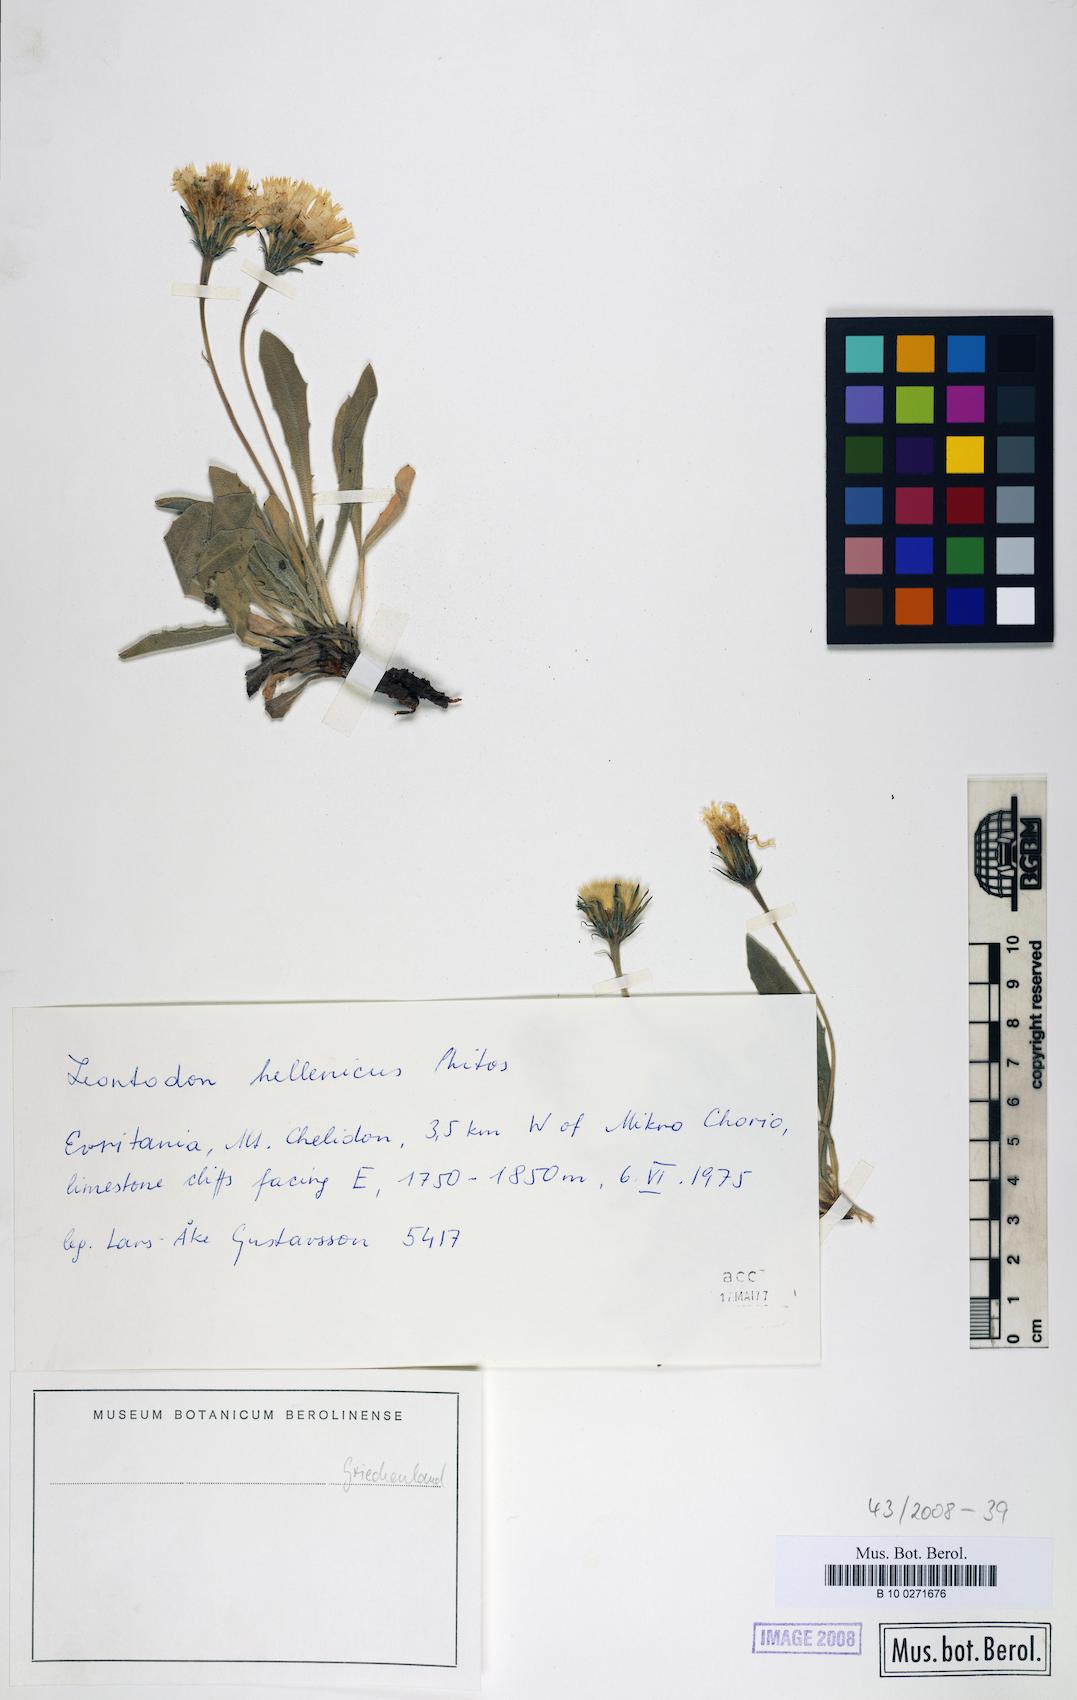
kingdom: Plantae
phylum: Tracheophyta
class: Magnoliopsida
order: Asterales
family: Asteraceae
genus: Leontodon
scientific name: Leontodon hellenicus
